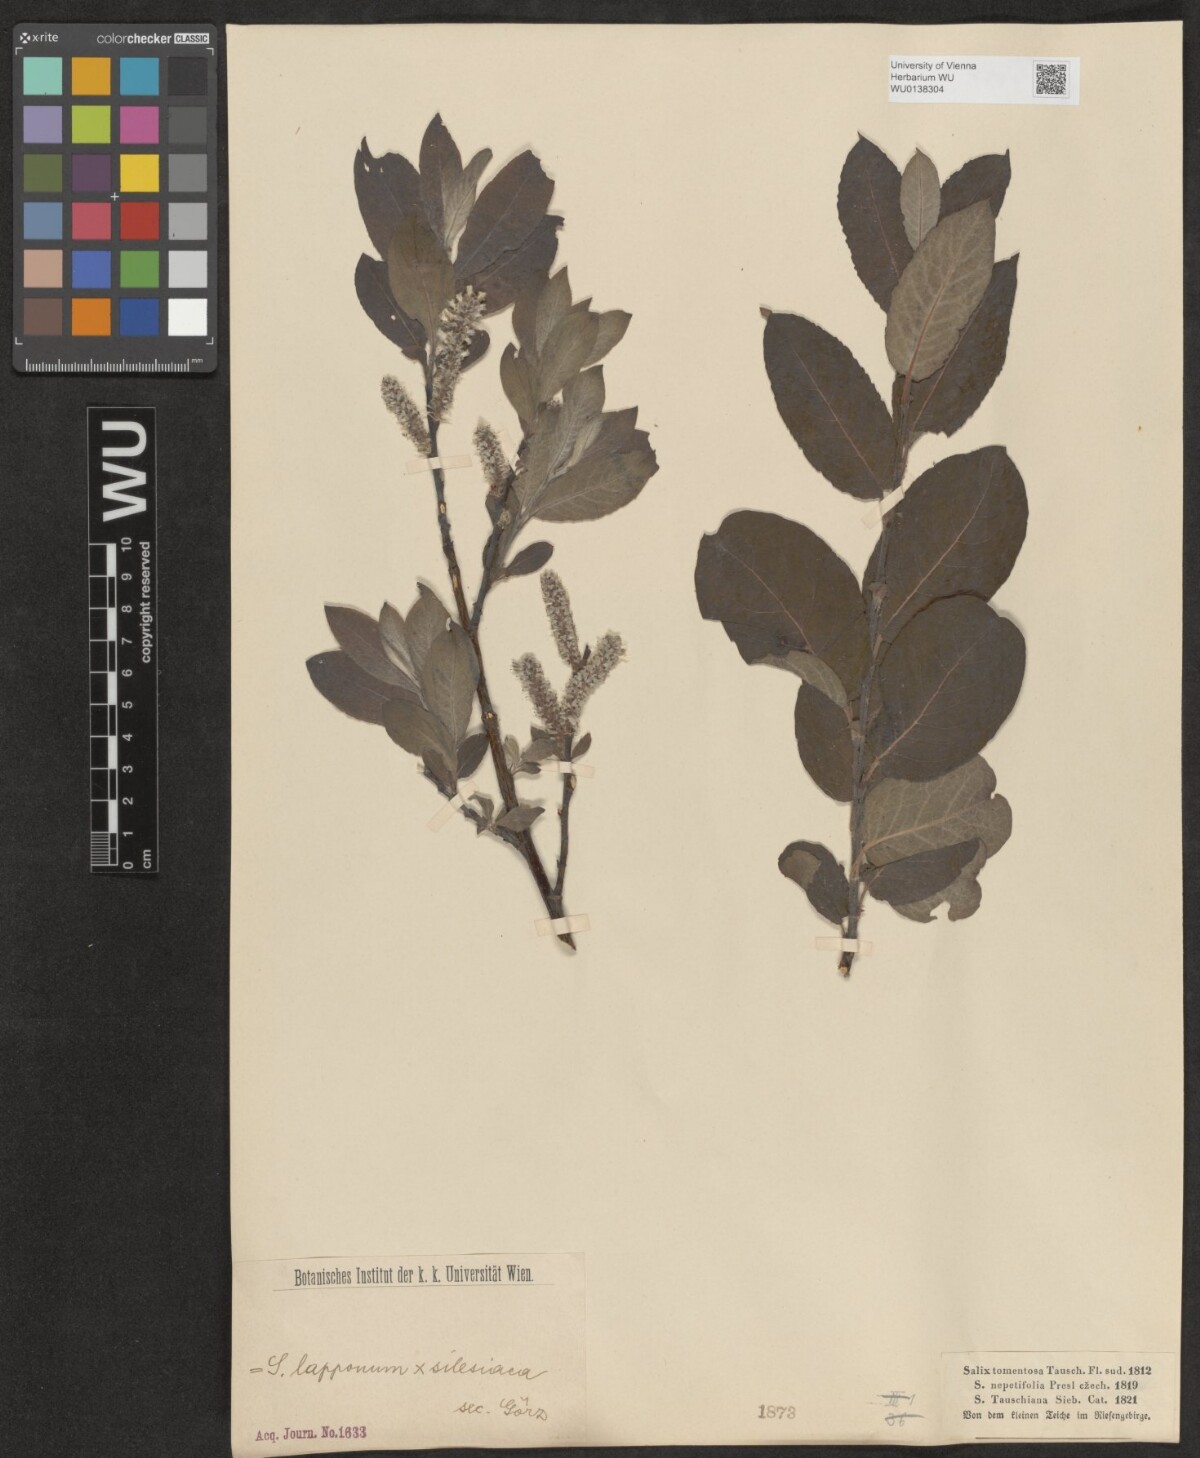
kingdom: Plantae
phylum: Tracheophyta
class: Magnoliopsida
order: Malpighiales
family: Salicaceae
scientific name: Salicaceae
